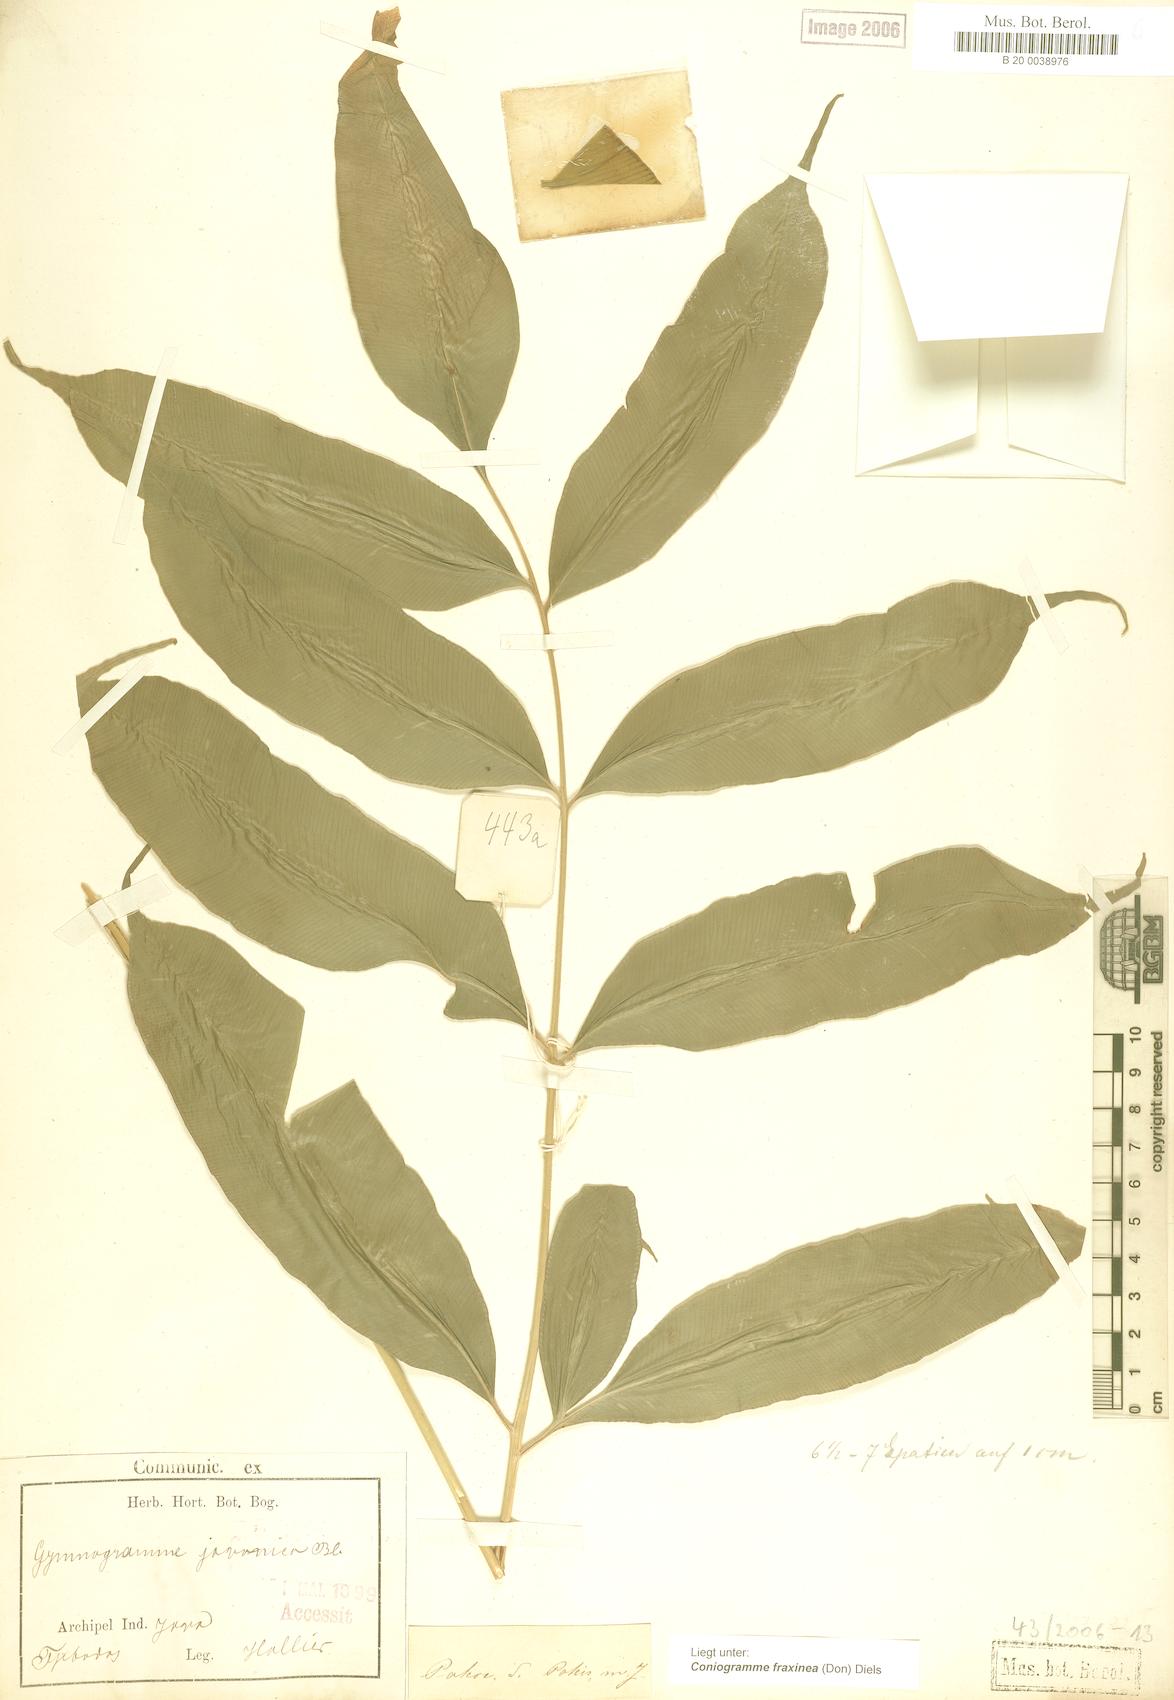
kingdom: Plantae
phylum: Tracheophyta
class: Polypodiopsida
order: Polypodiales
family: Pteridaceae
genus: Coniogramme
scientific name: Coniogramme fraxinea
